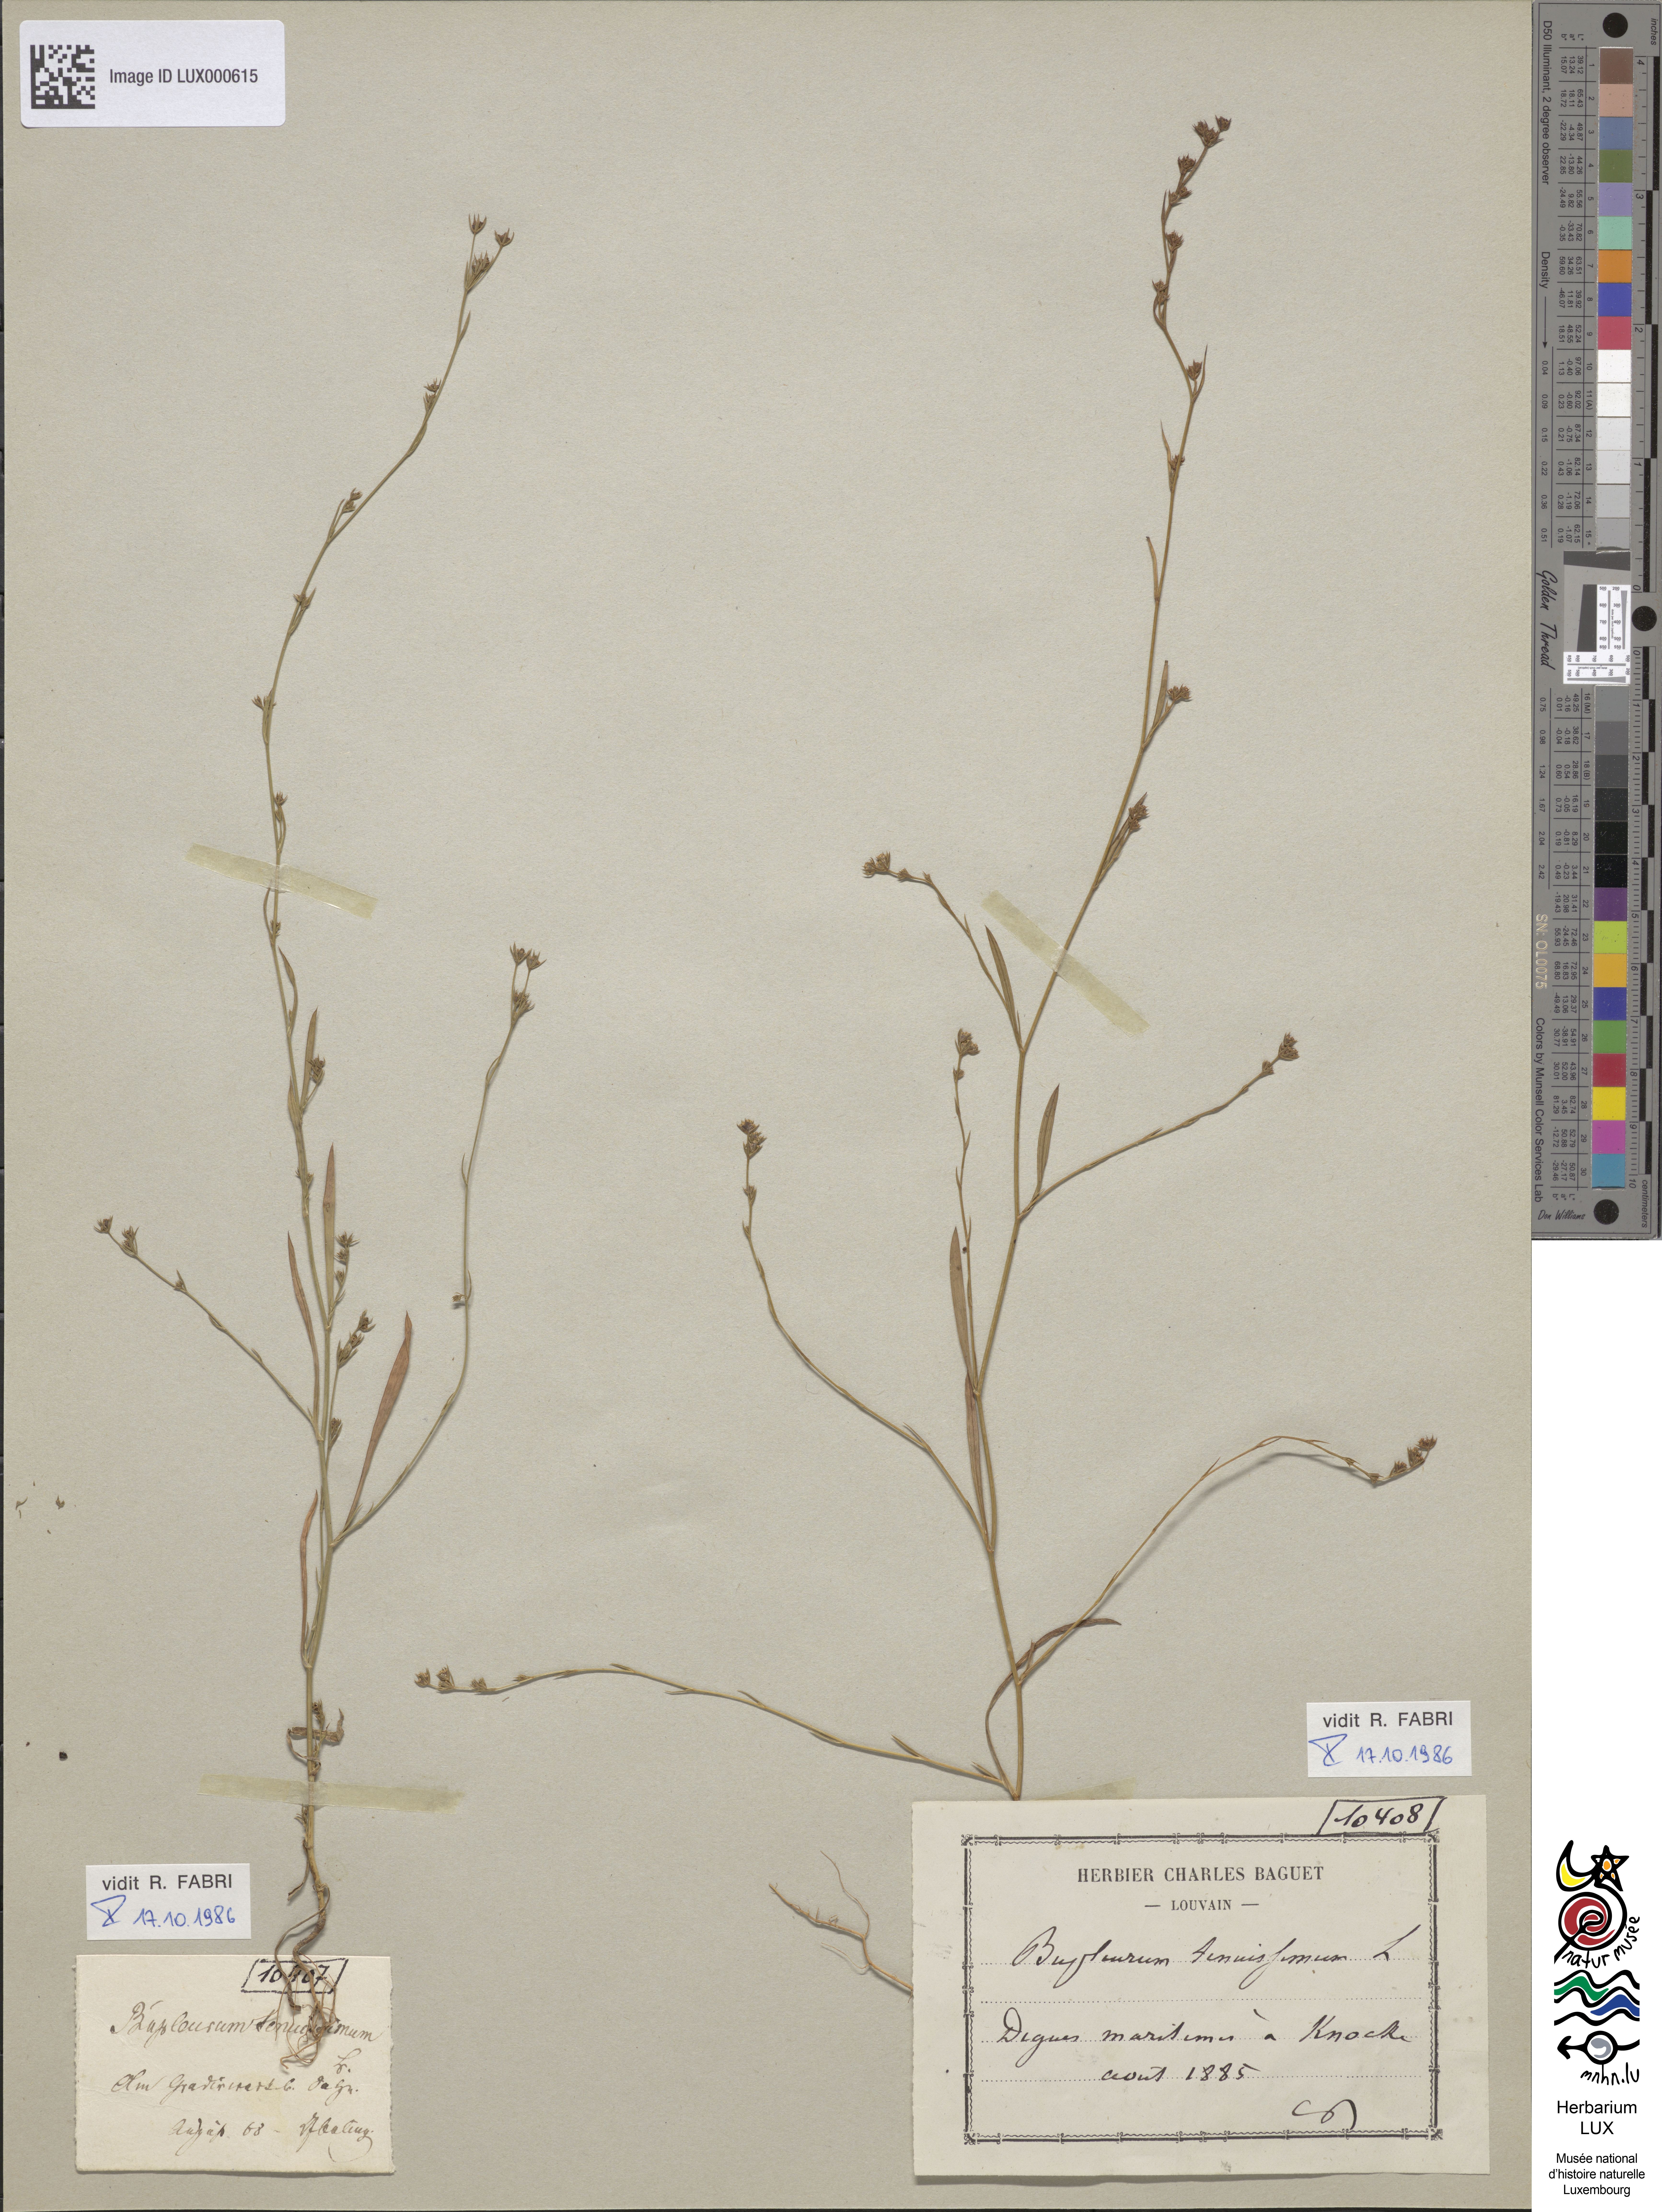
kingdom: Plantae
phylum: Tracheophyta
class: Magnoliopsida
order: Apiales
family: Apiaceae
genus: Bupleurum
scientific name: Bupleurum tenuissimum
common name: Slender hare's-ear
